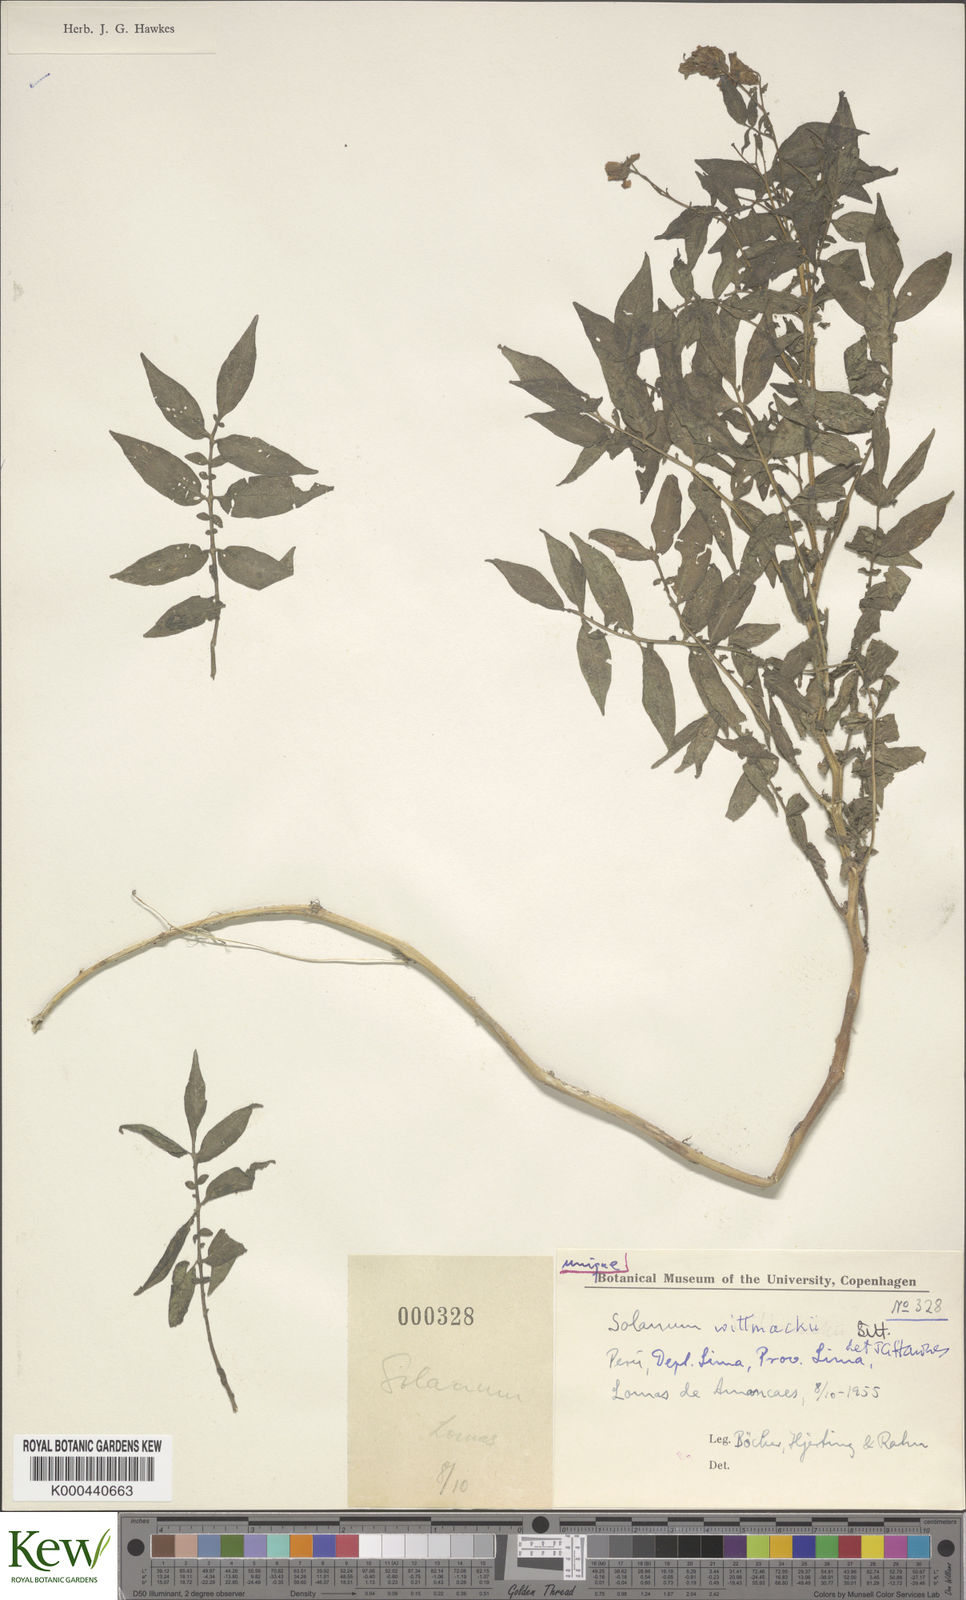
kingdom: Plantae
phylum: Tracheophyta
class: Magnoliopsida
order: Solanales
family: Solanaceae
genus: Solanum
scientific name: Solanum wittmackii
